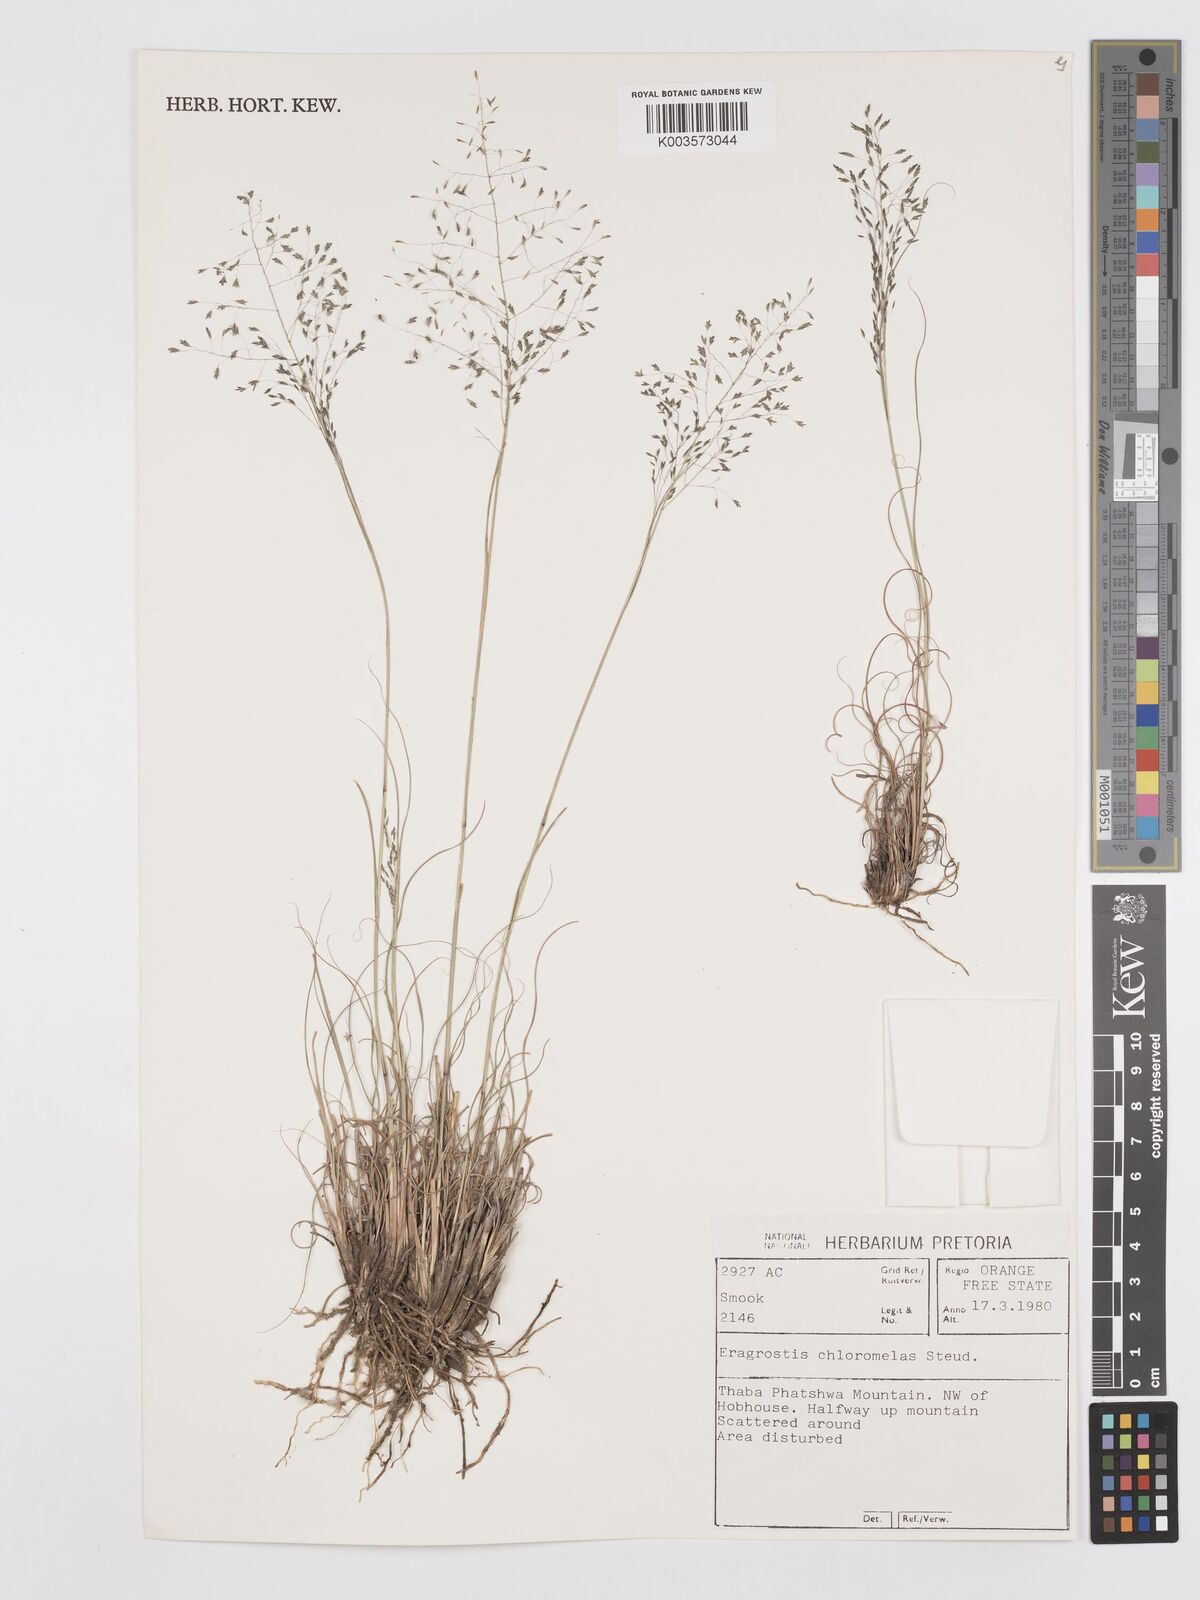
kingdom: Plantae
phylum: Tracheophyta
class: Liliopsida
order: Poales
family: Poaceae
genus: Eragrostis
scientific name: Eragrostis curvula
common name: African love-grass
